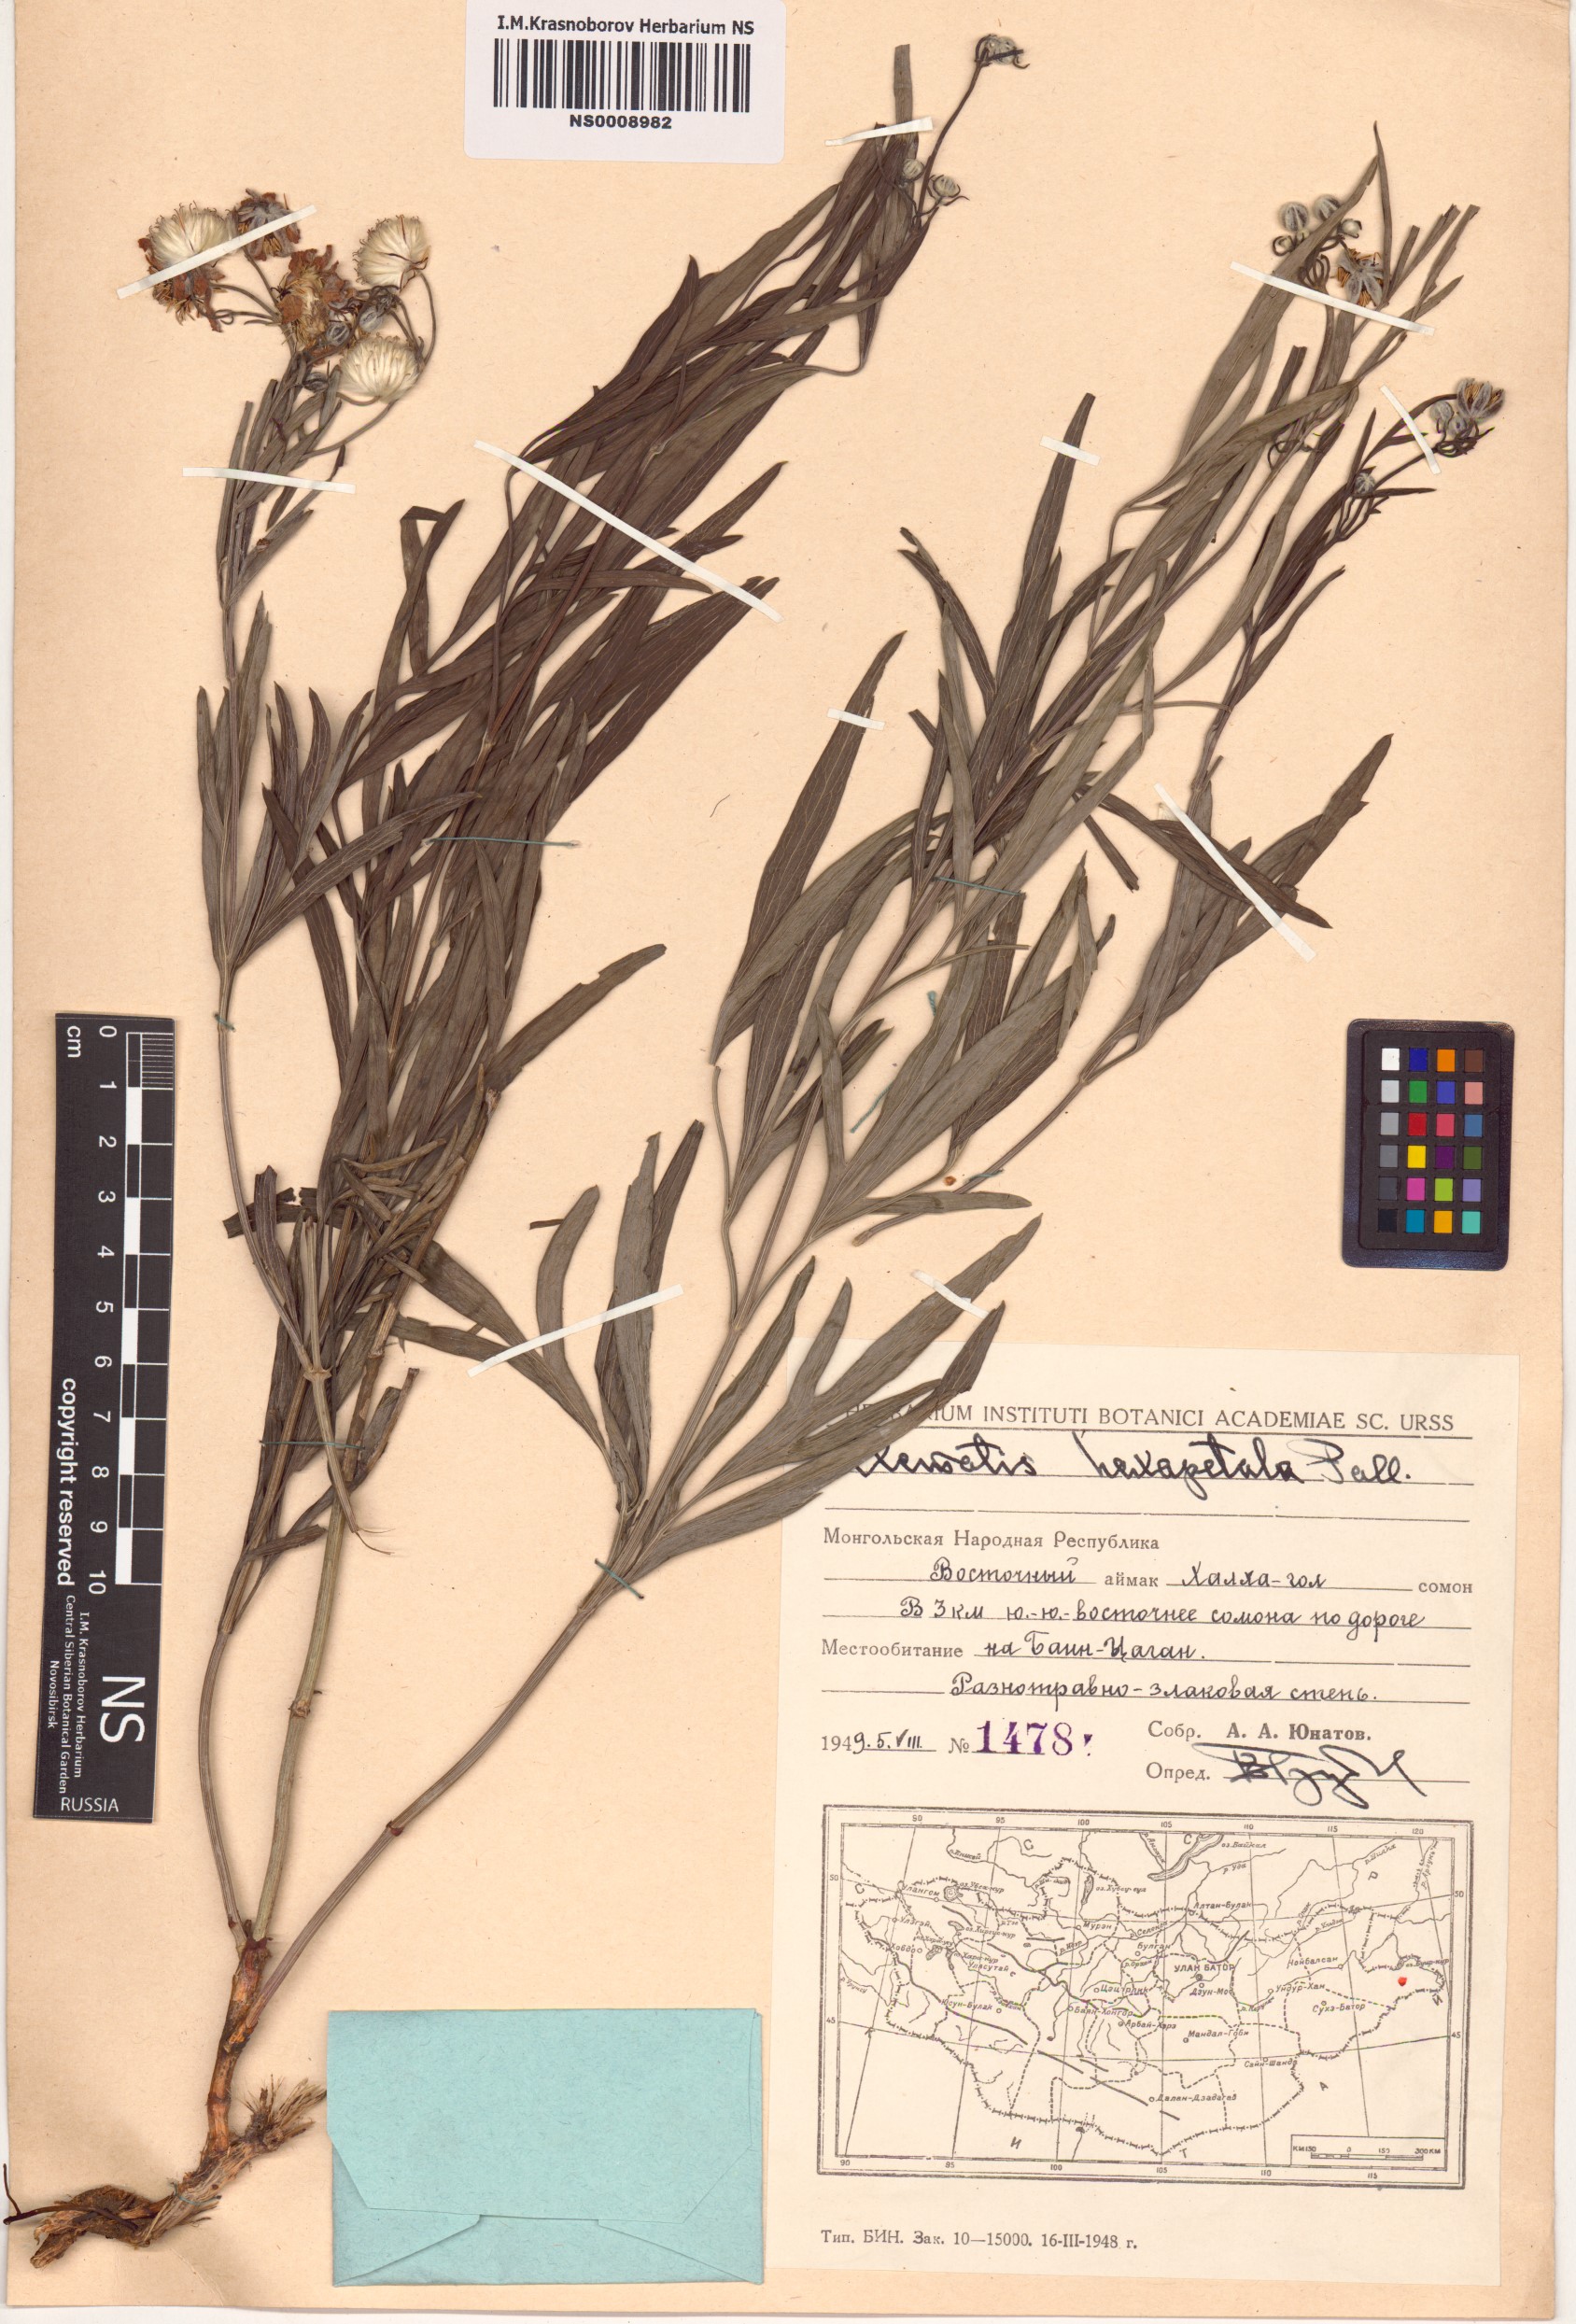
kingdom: Plantae
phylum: Tracheophyta
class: Magnoliopsida
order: Ranunculales
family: Ranunculaceae
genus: Clematis
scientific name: Clematis hexapetala
